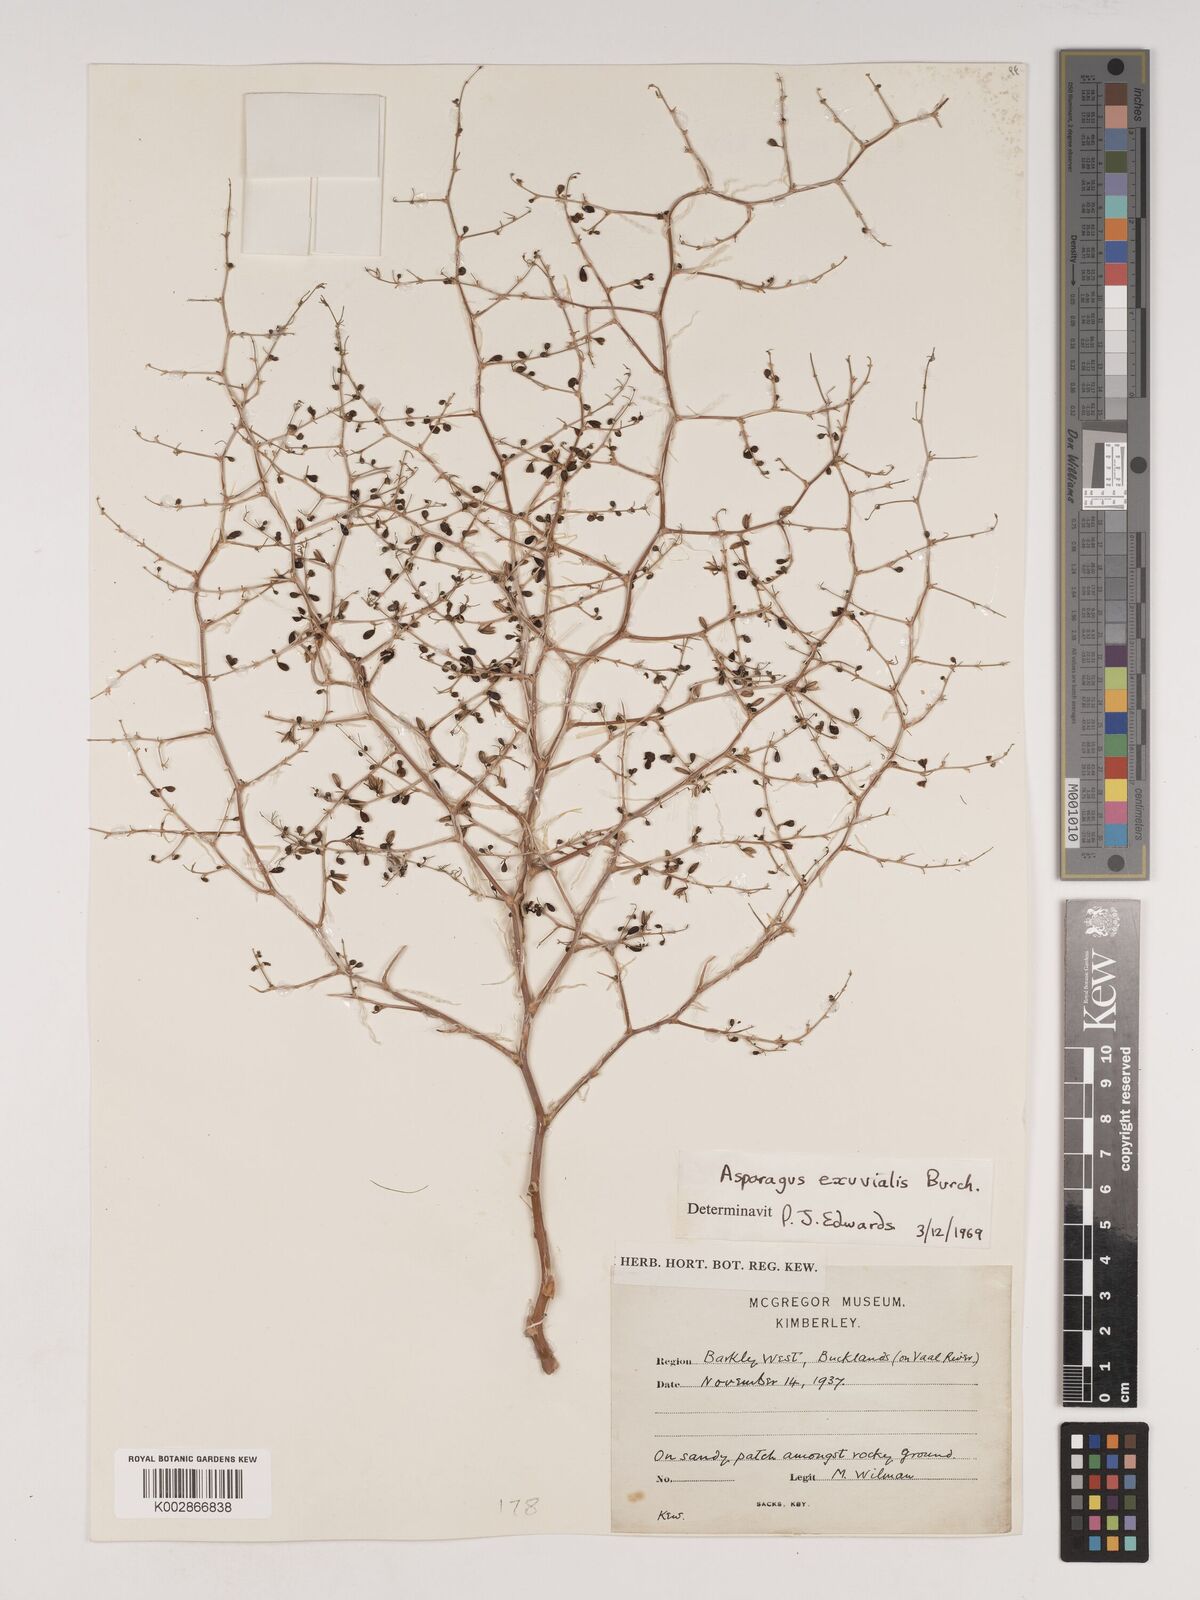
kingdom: Plantae
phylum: Tracheophyta
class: Liliopsida
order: Asparagales
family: Asparagaceae
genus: Asparagus
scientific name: Asparagus exuvialis
